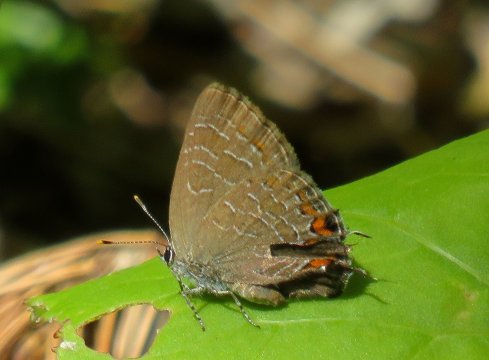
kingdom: Animalia
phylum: Arthropoda
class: Insecta
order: Lepidoptera
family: Lycaenidae
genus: Satyrium
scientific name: Satyrium liparops
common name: Striped Hairstreak
